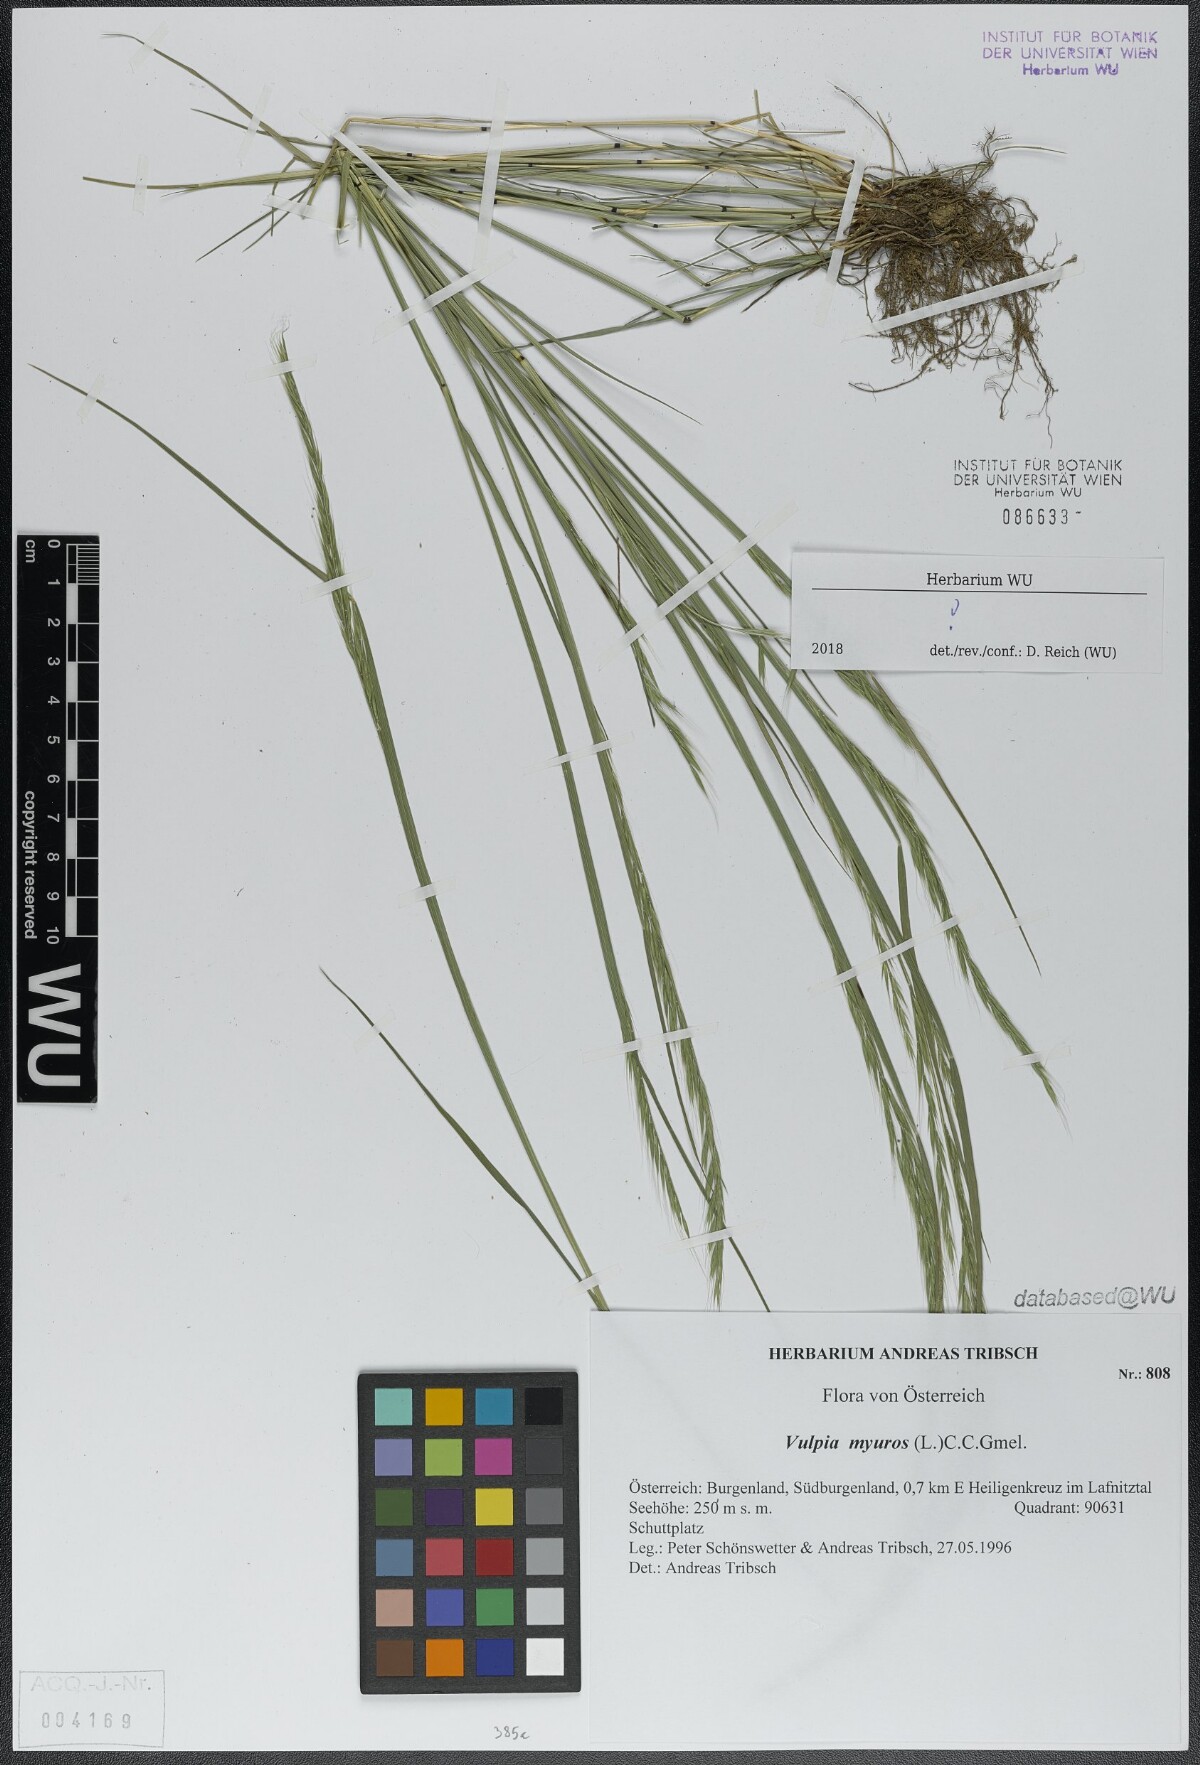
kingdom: Plantae
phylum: Tracheophyta
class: Liliopsida
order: Poales
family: Poaceae
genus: Festuca
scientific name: Festuca myuros
